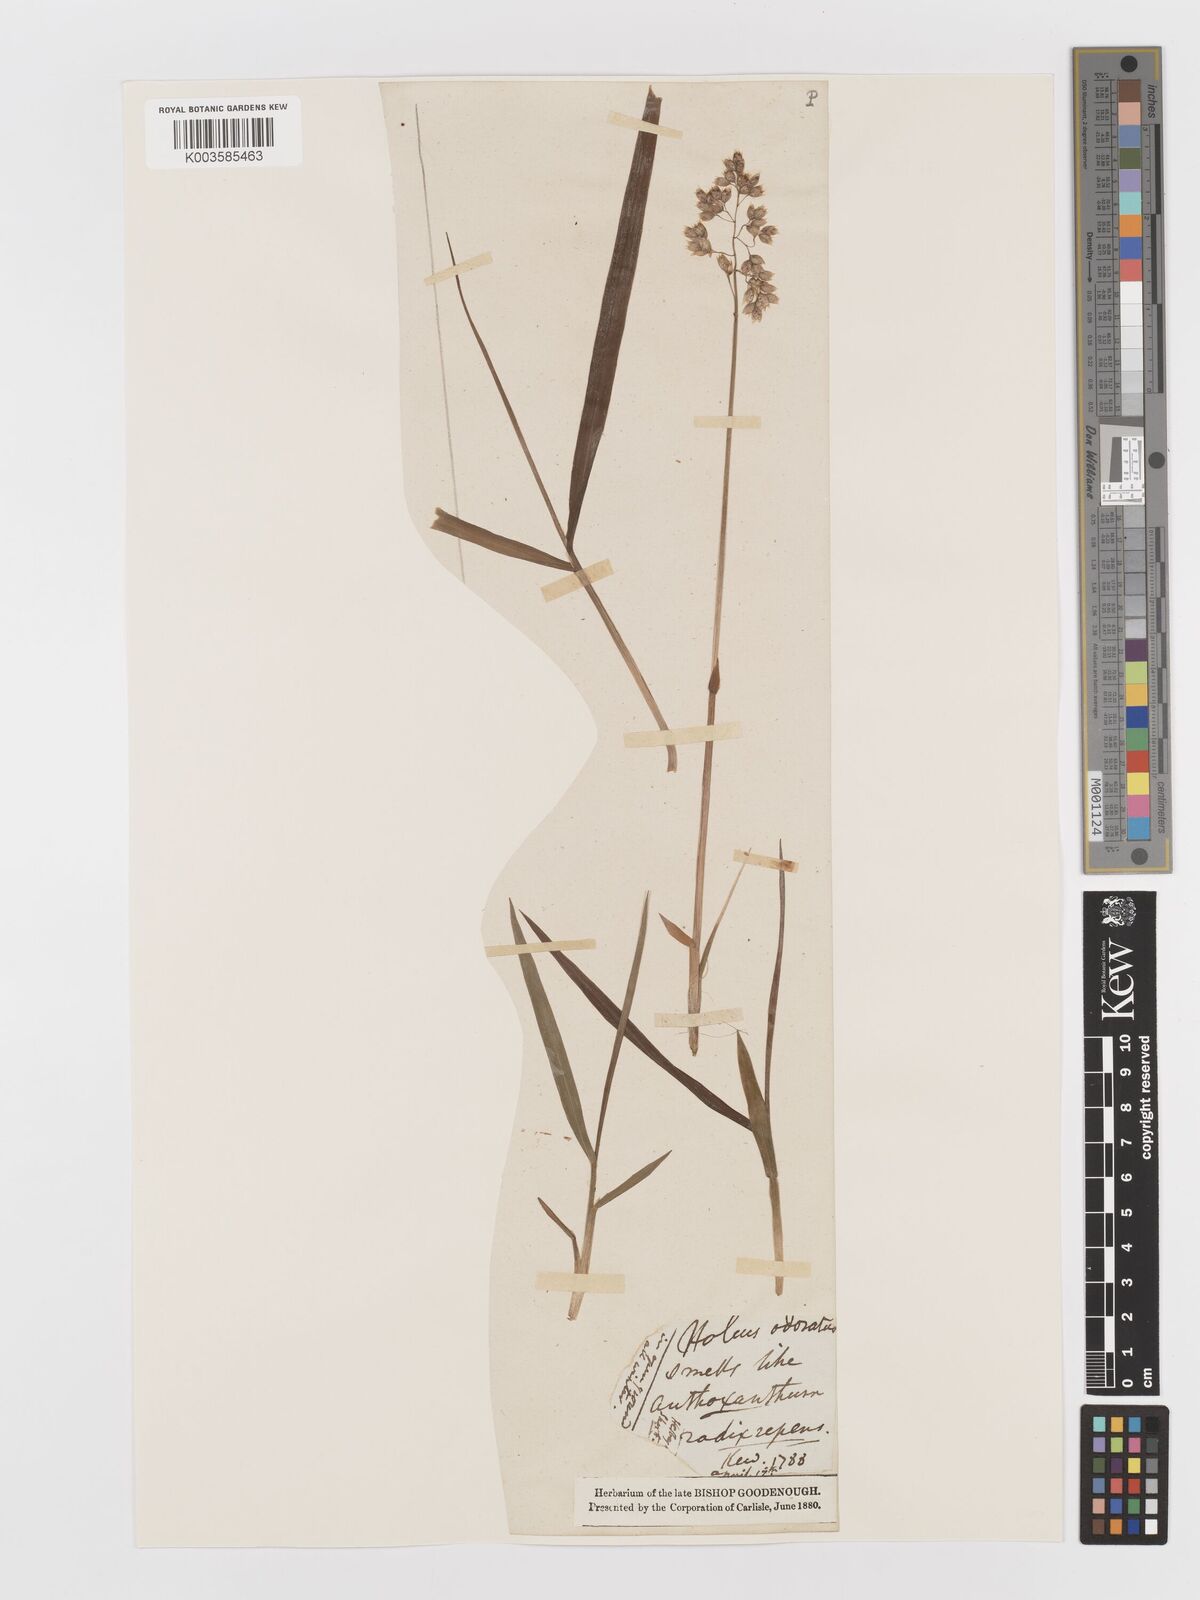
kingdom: Plantae
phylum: Tracheophyta
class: Liliopsida
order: Poales
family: Poaceae
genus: Anthoxanthum
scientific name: Anthoxanthum nitens
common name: Holy grass
